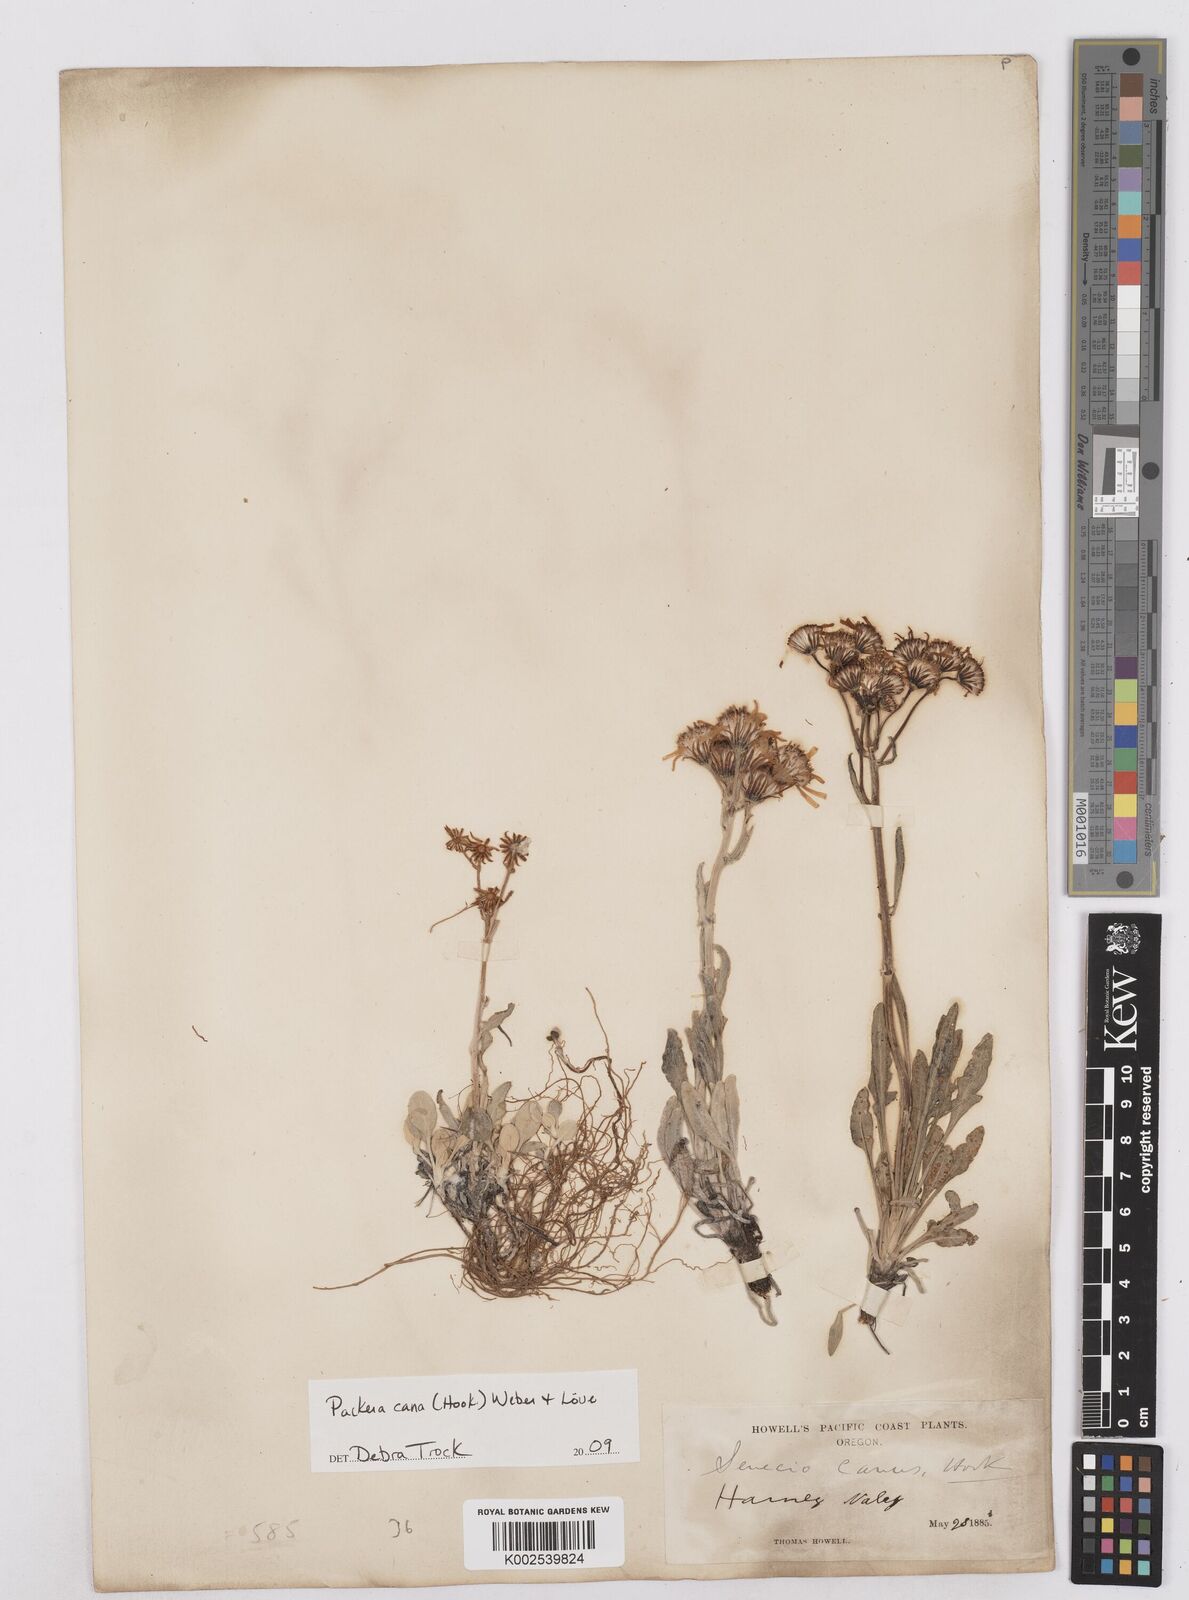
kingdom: Plantae
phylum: Tracheophyta
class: Magnoliopsida
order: Asterales
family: Asteraceae
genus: Packera
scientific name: Packera cana
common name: Woolly groundsel
